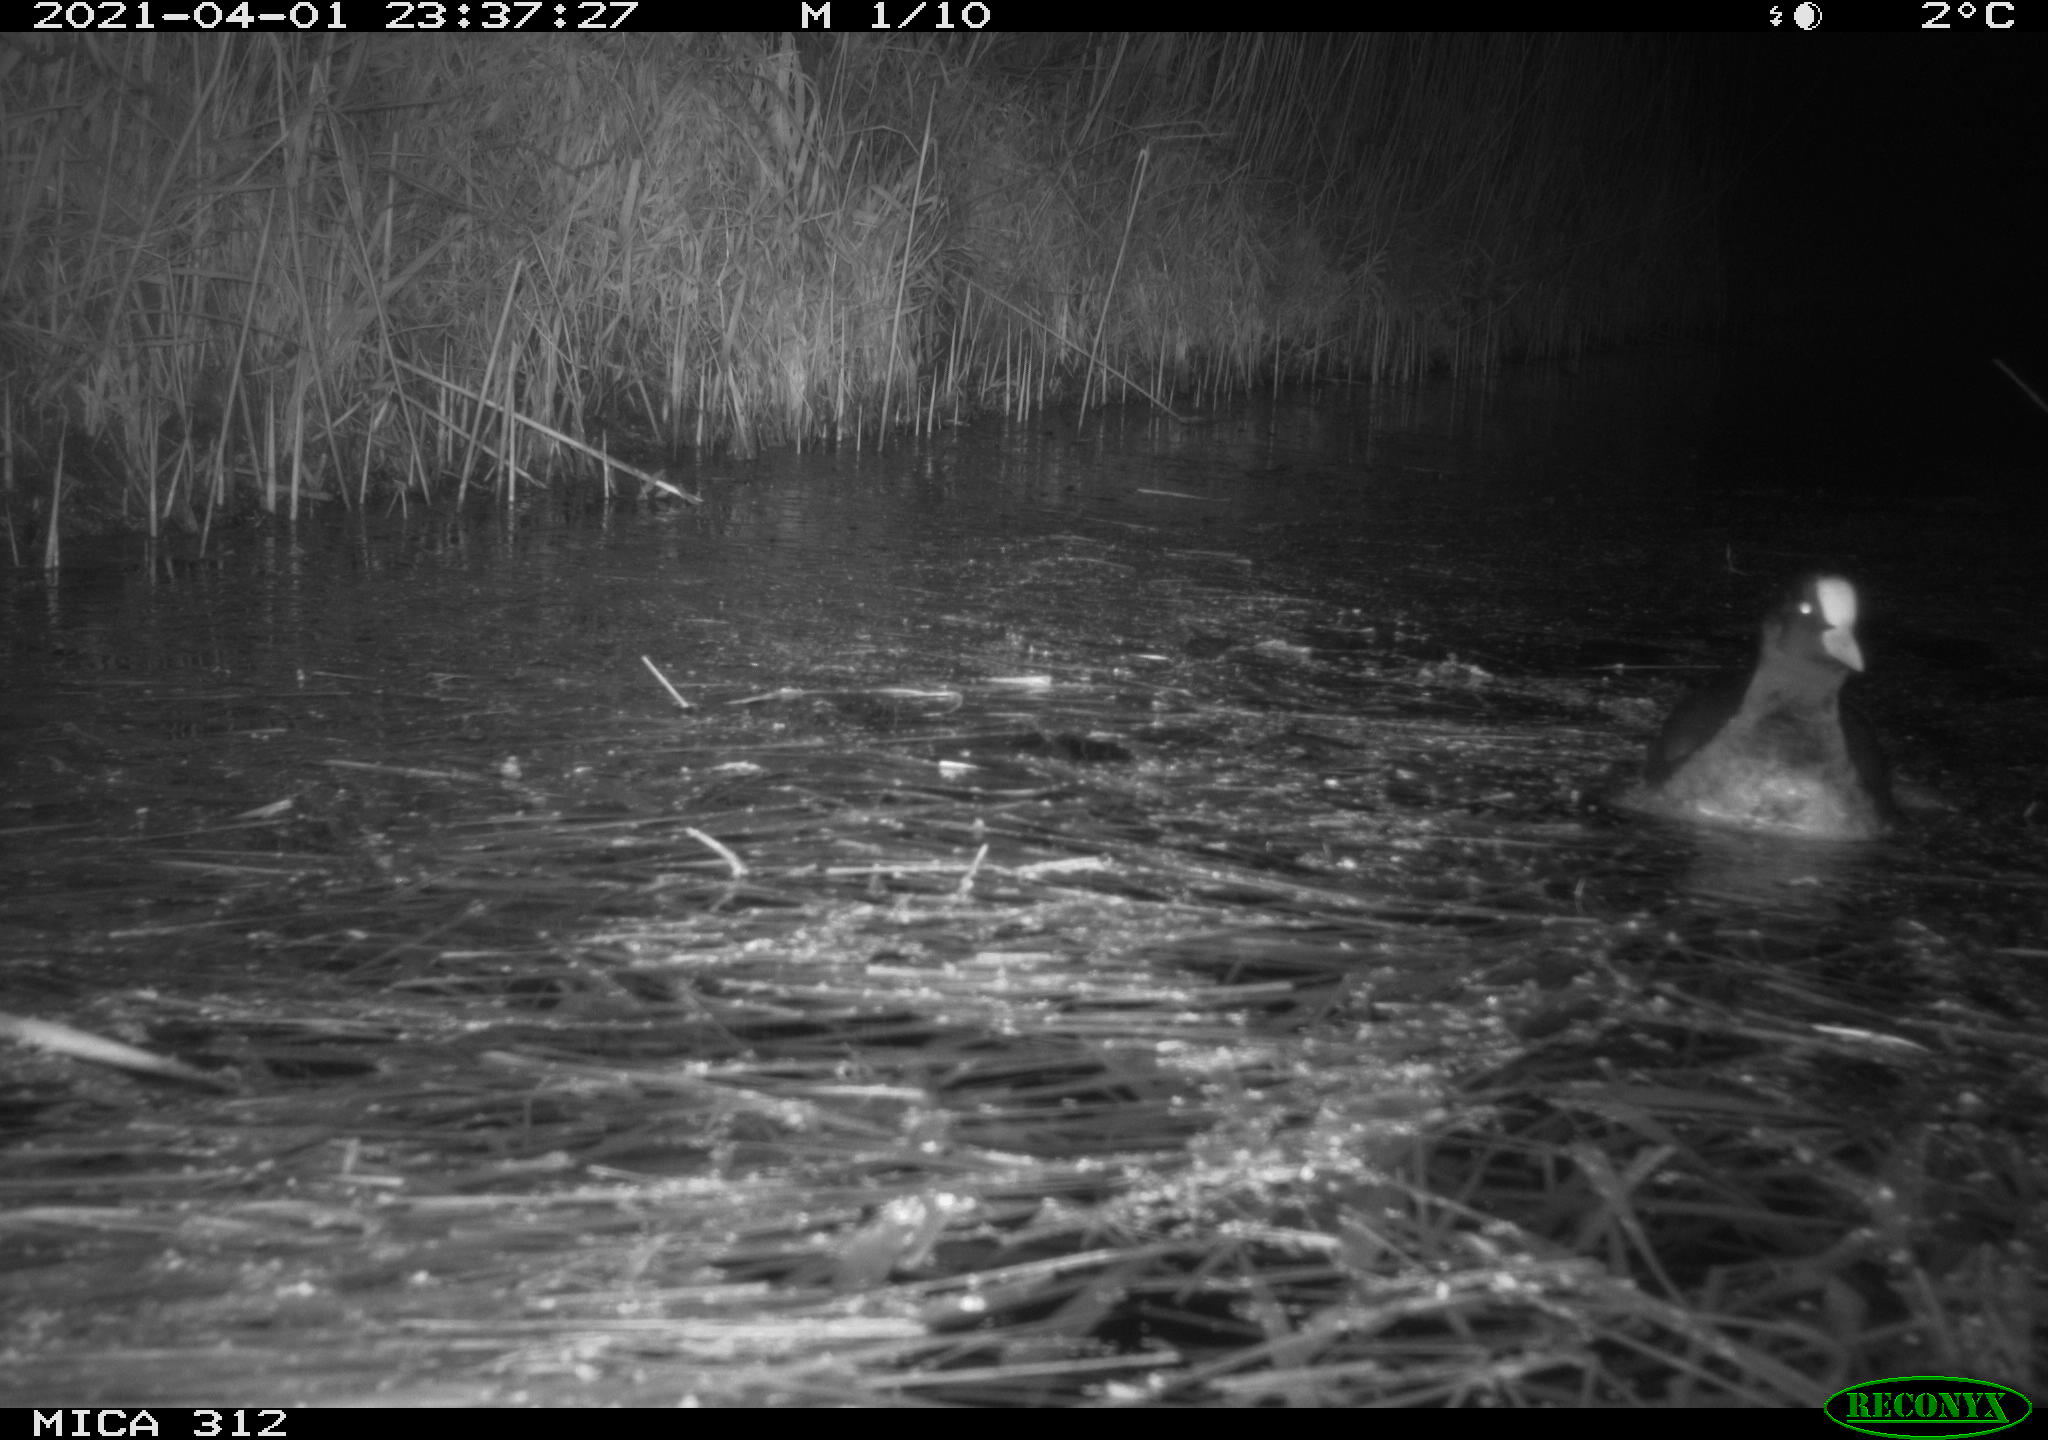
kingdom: Animalia
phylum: Chordata
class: Aves
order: Gruiformes
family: Rallidae
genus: Fulica
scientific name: Fulica atra
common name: Eurasian coot
